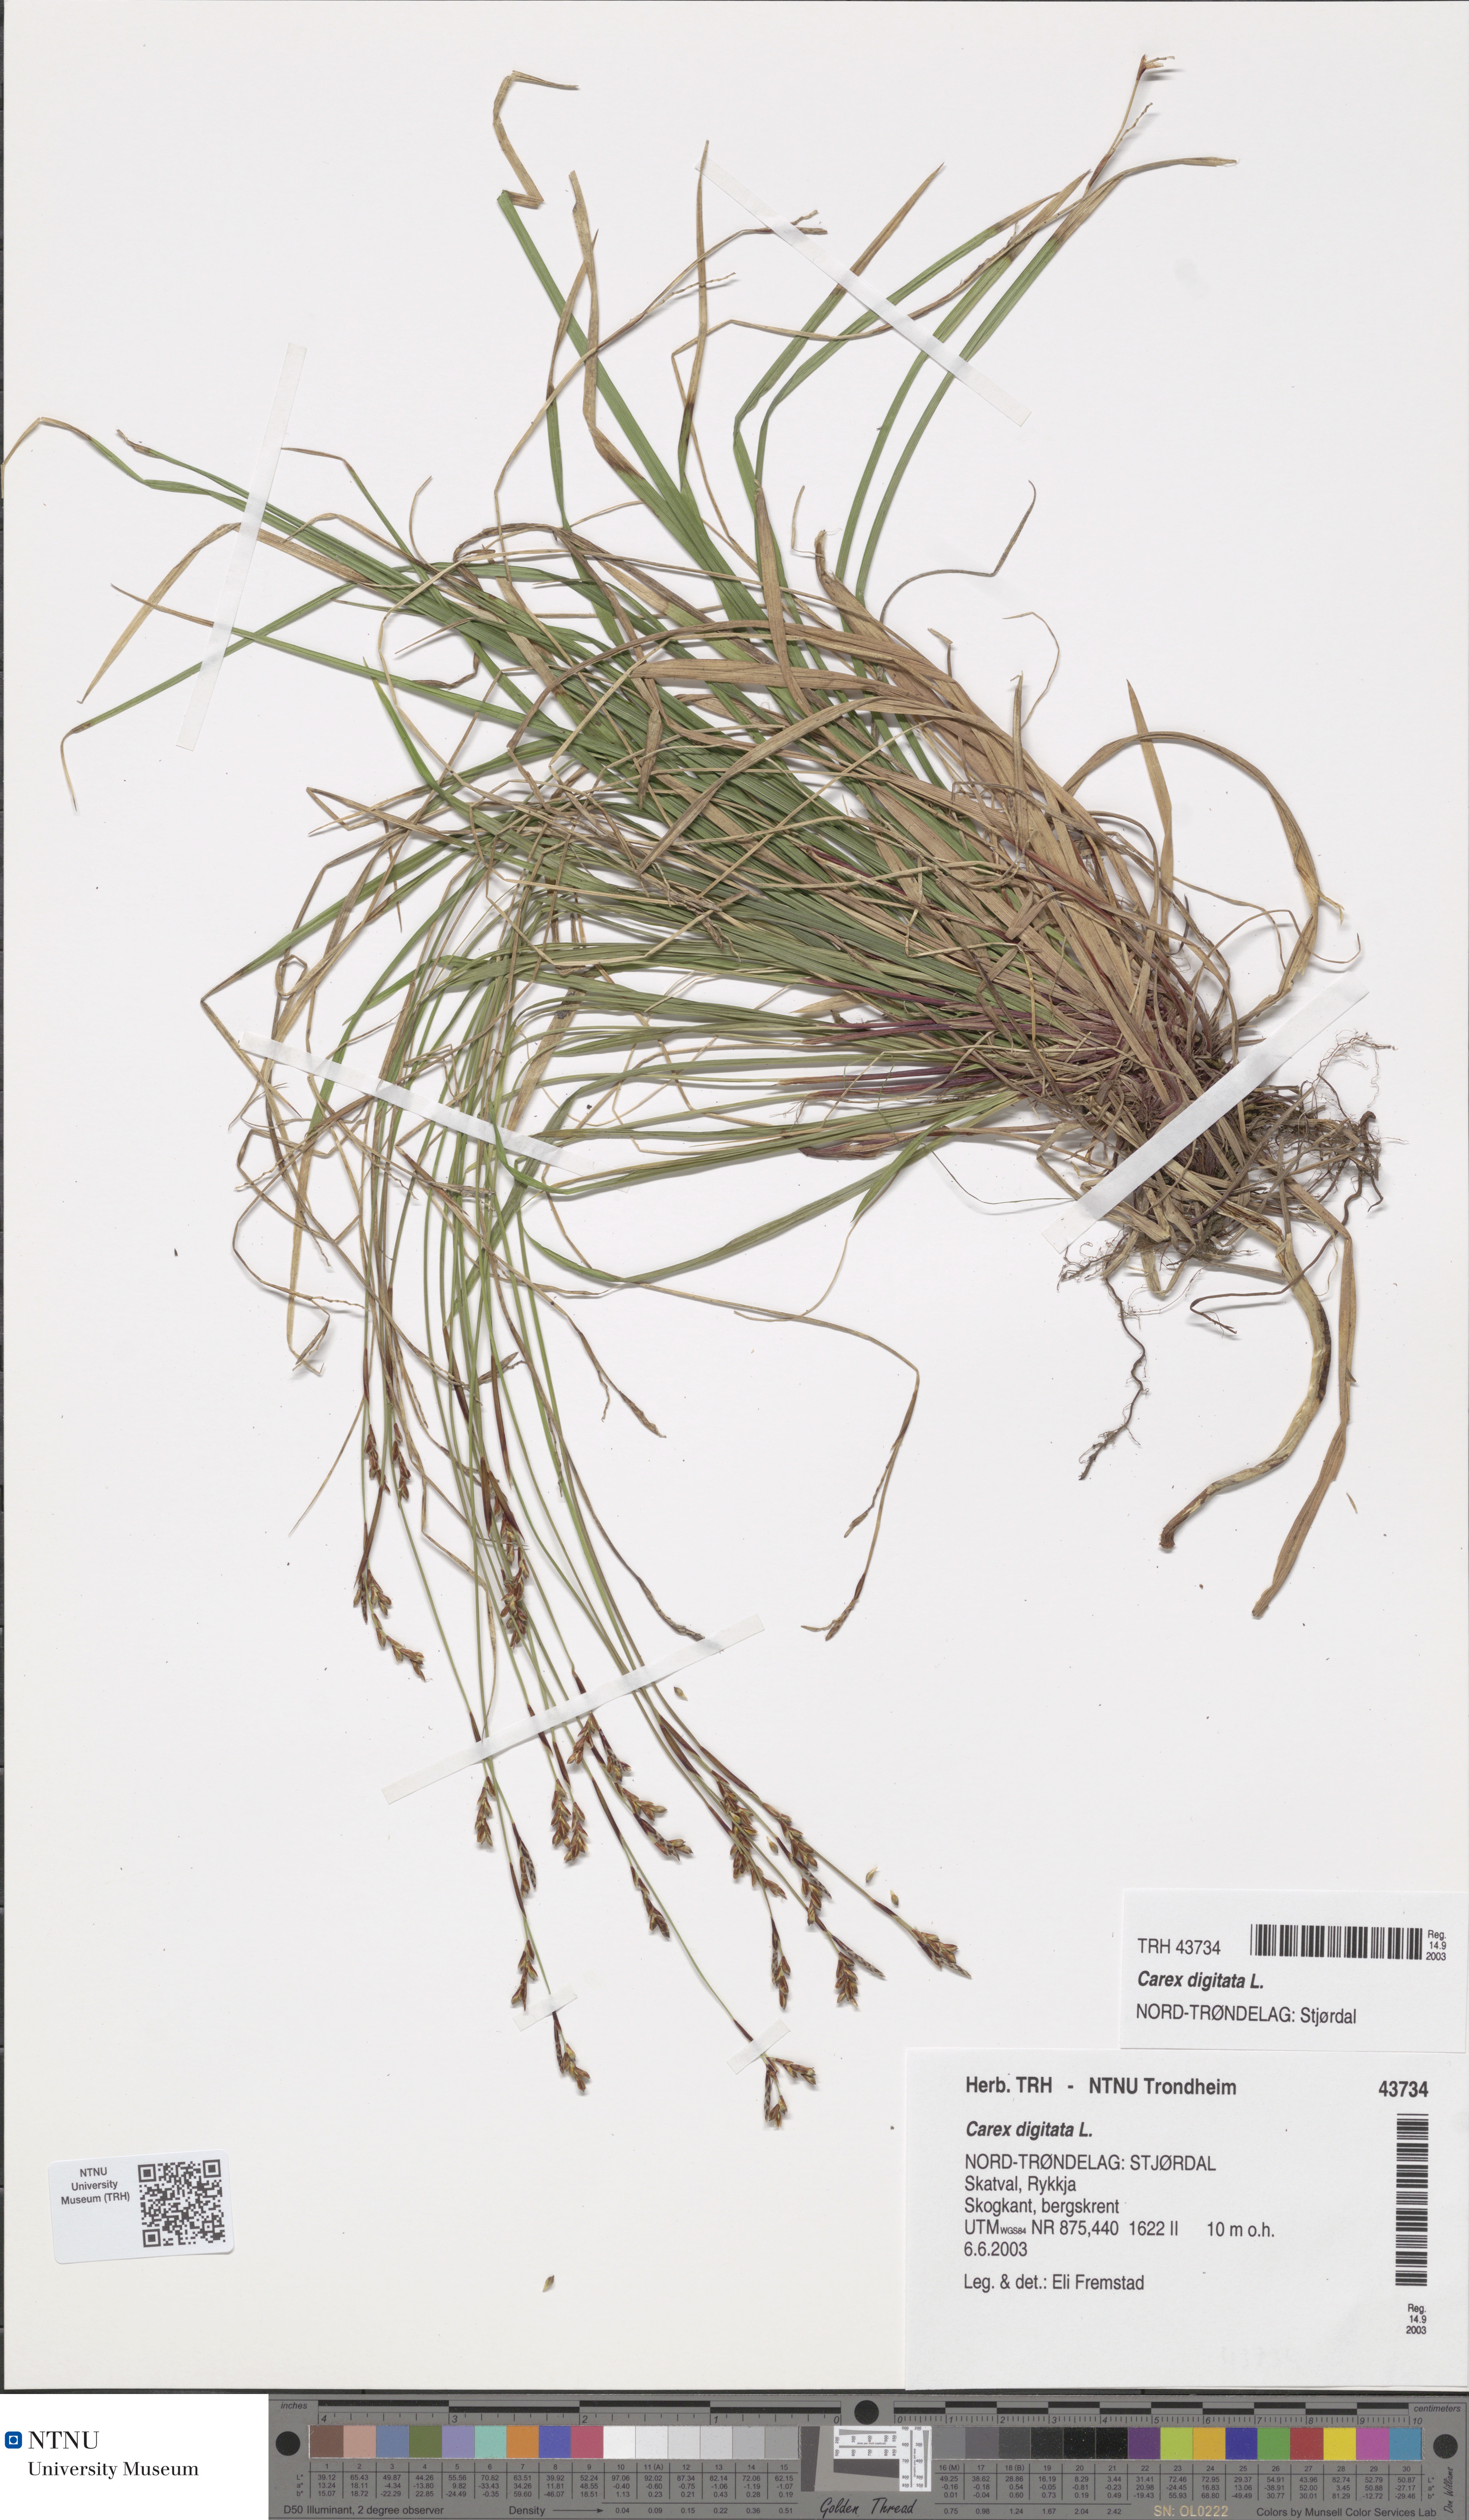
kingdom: Plantae
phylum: Tracheophyta
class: Liliopsida
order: Poales
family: Cyperaceae
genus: Carex
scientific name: Carex digitata
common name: Fingered sedge
